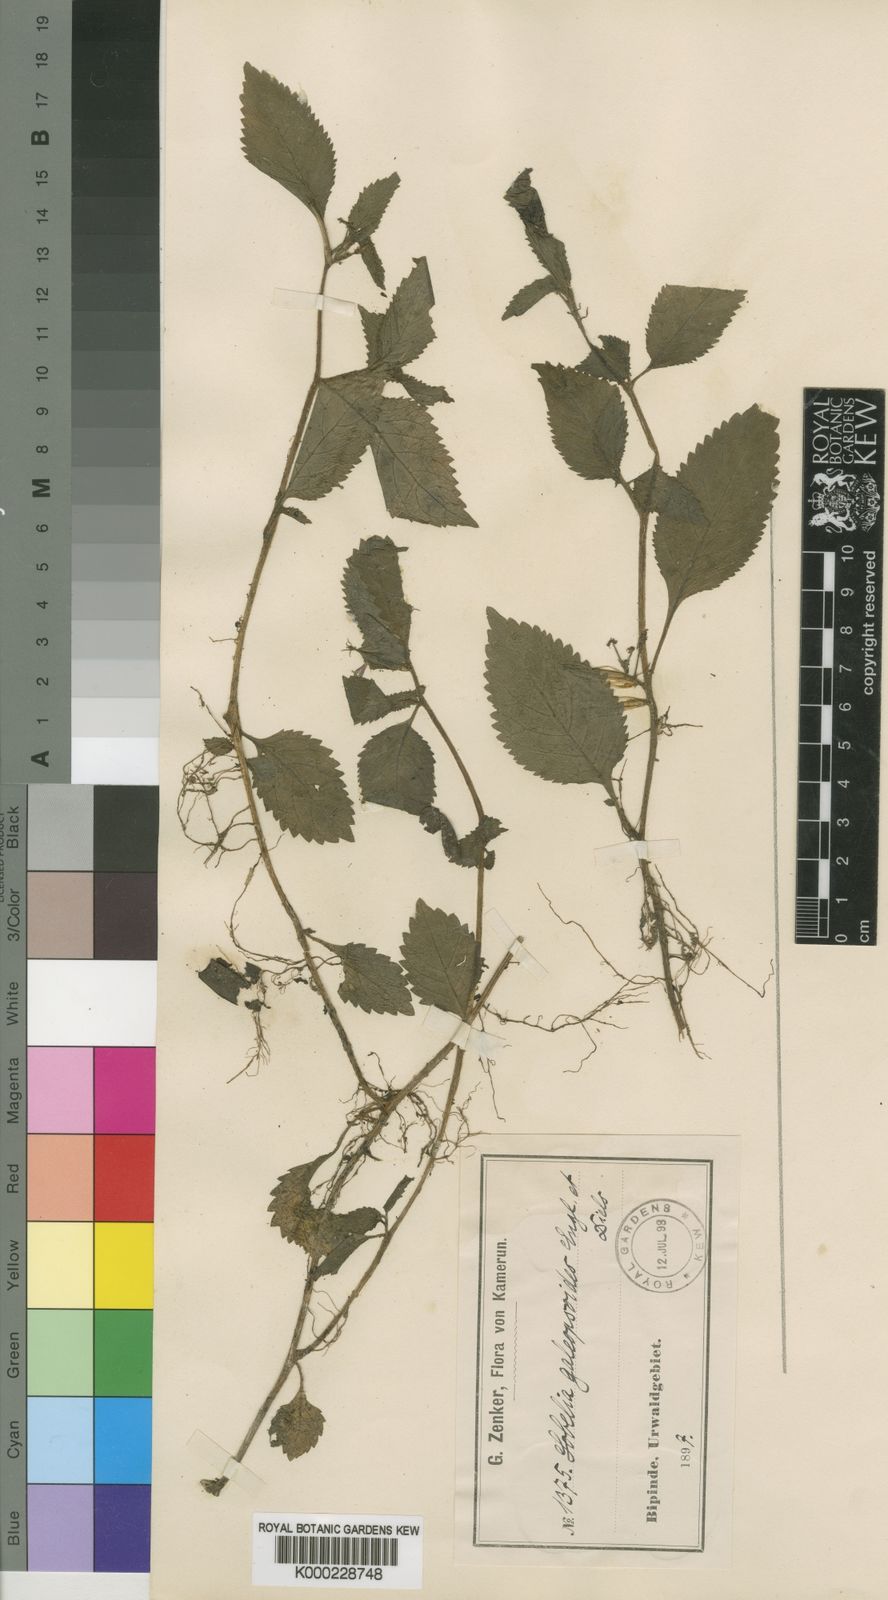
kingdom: Plantae
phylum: Tracheophyta
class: Magnoliopsida
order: Asterales
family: Campanulaceae
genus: Dielsantha
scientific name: Dielsantha galeopsoides
